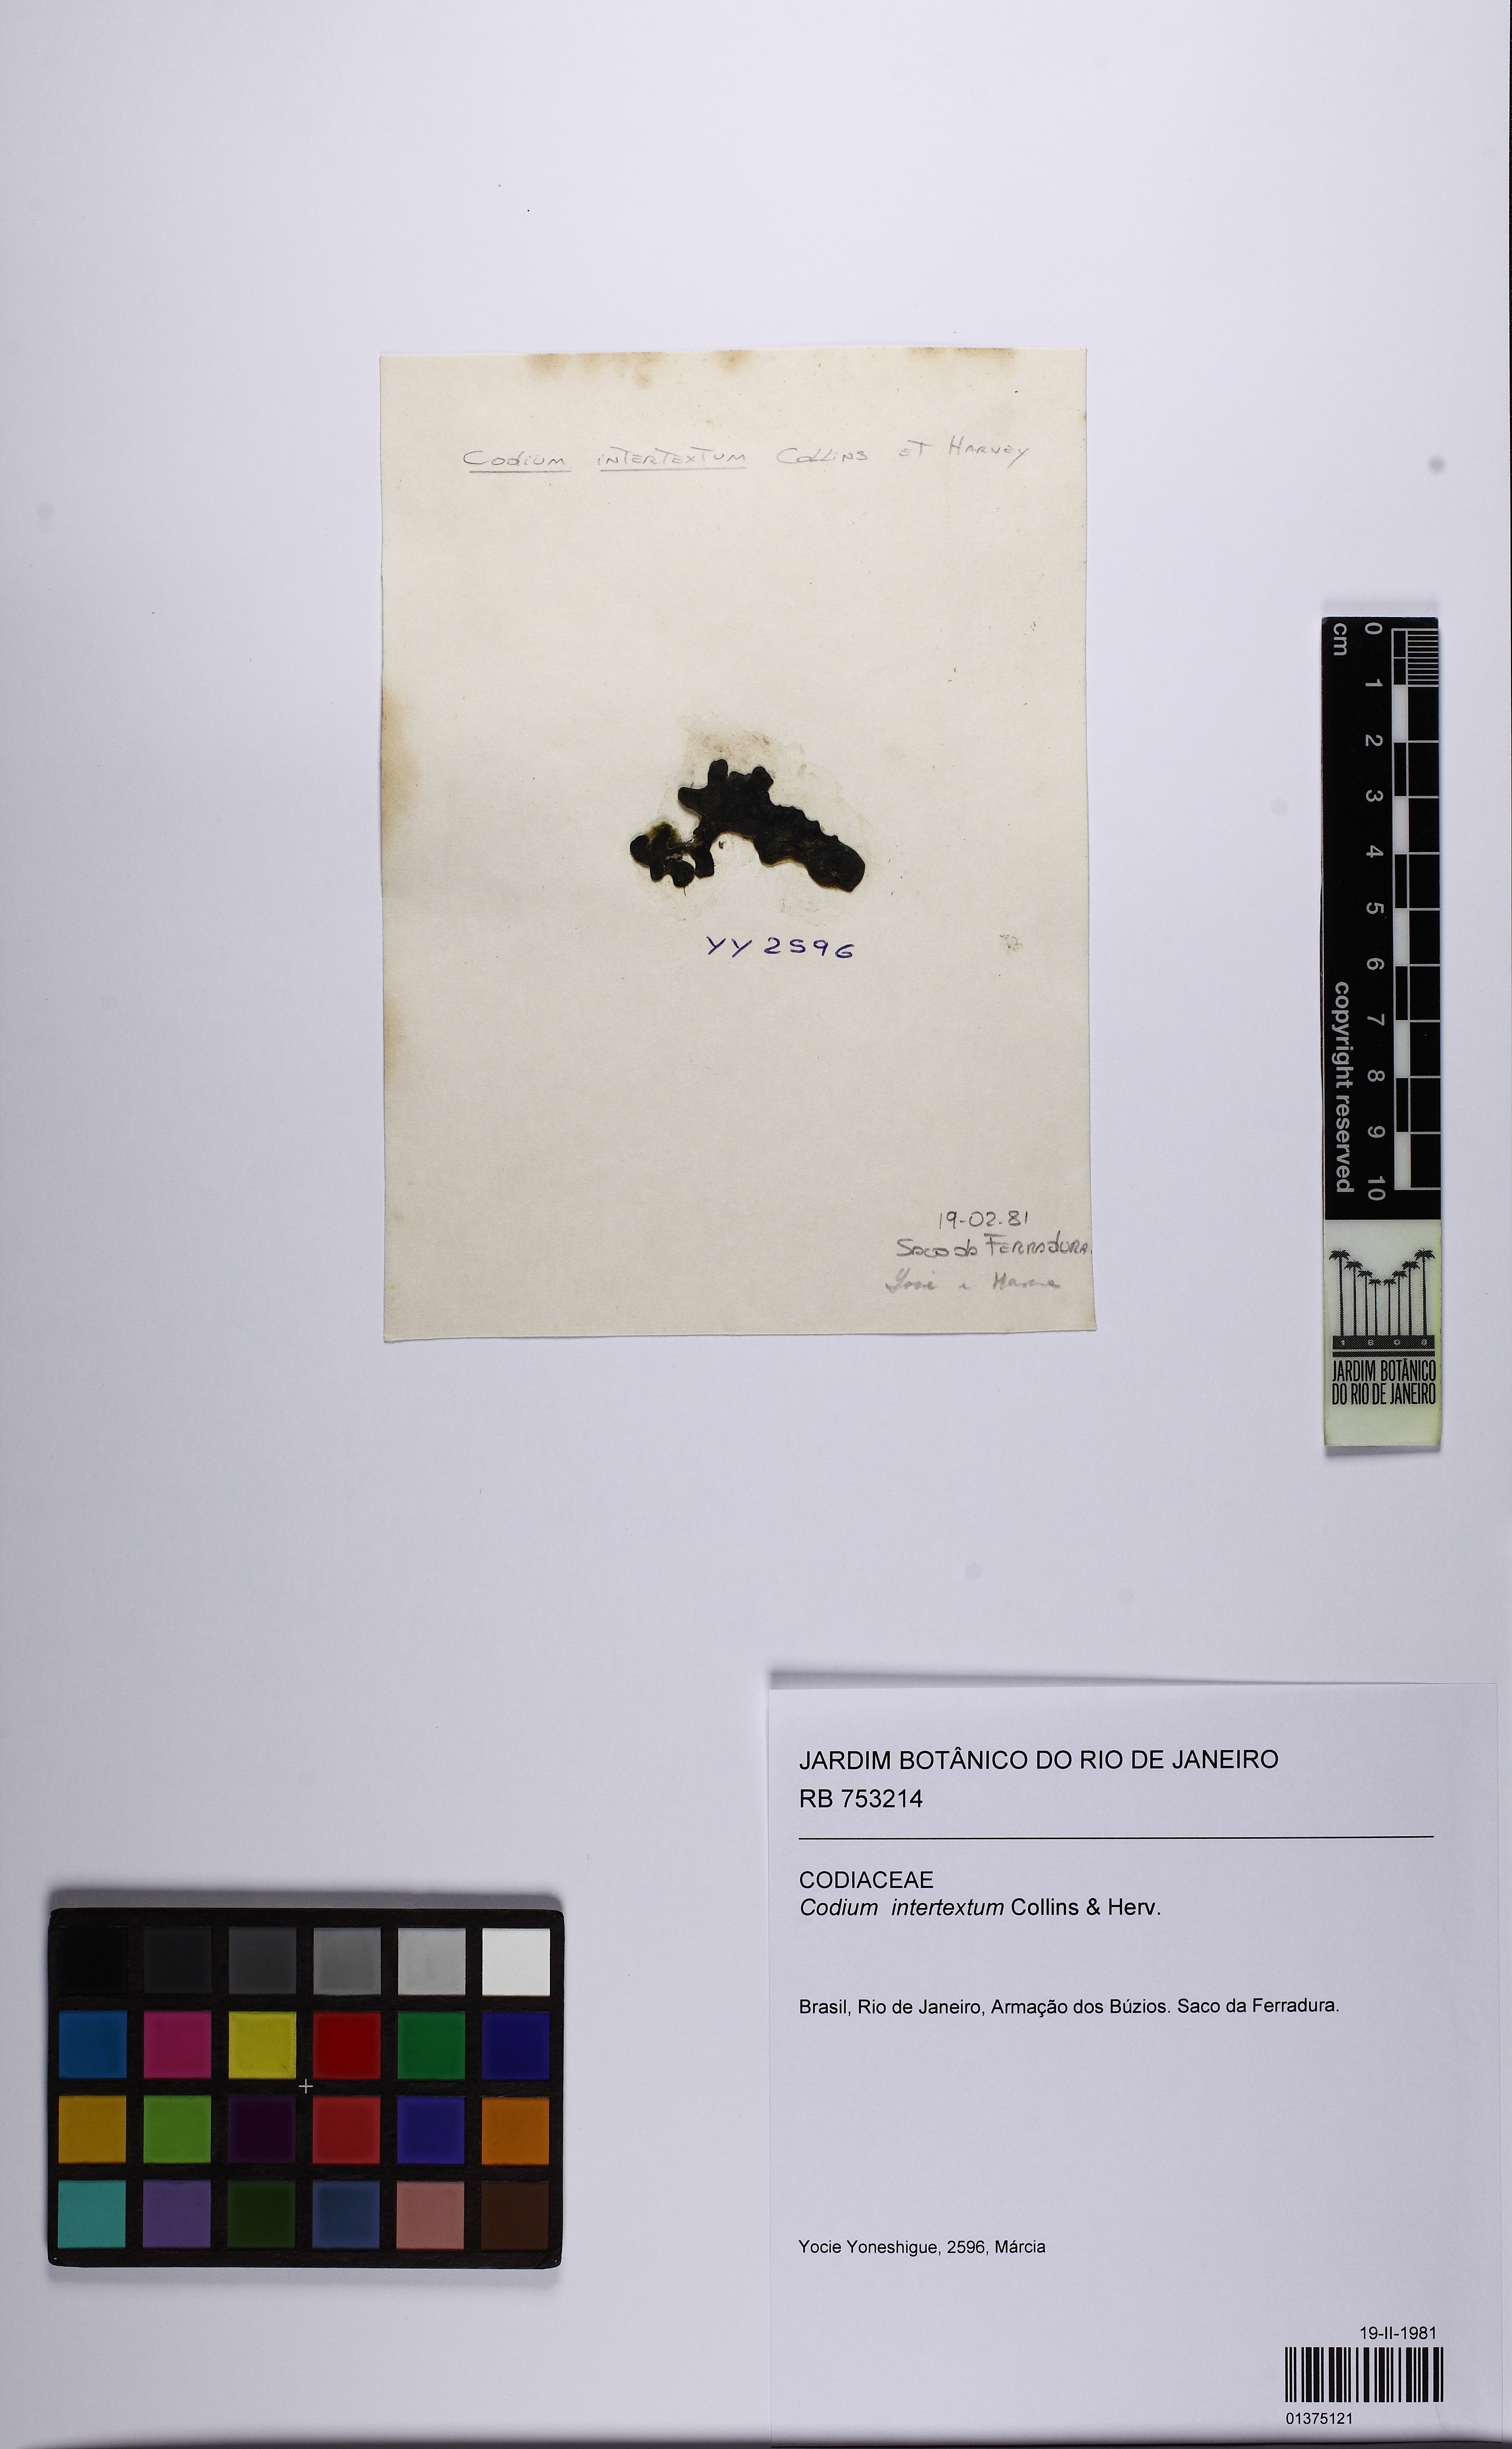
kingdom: Plantae
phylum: Chlorophyta
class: Ulvophyceae
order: Bryopsidales
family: Codiaceae
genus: Codium
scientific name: Codium intertextum
